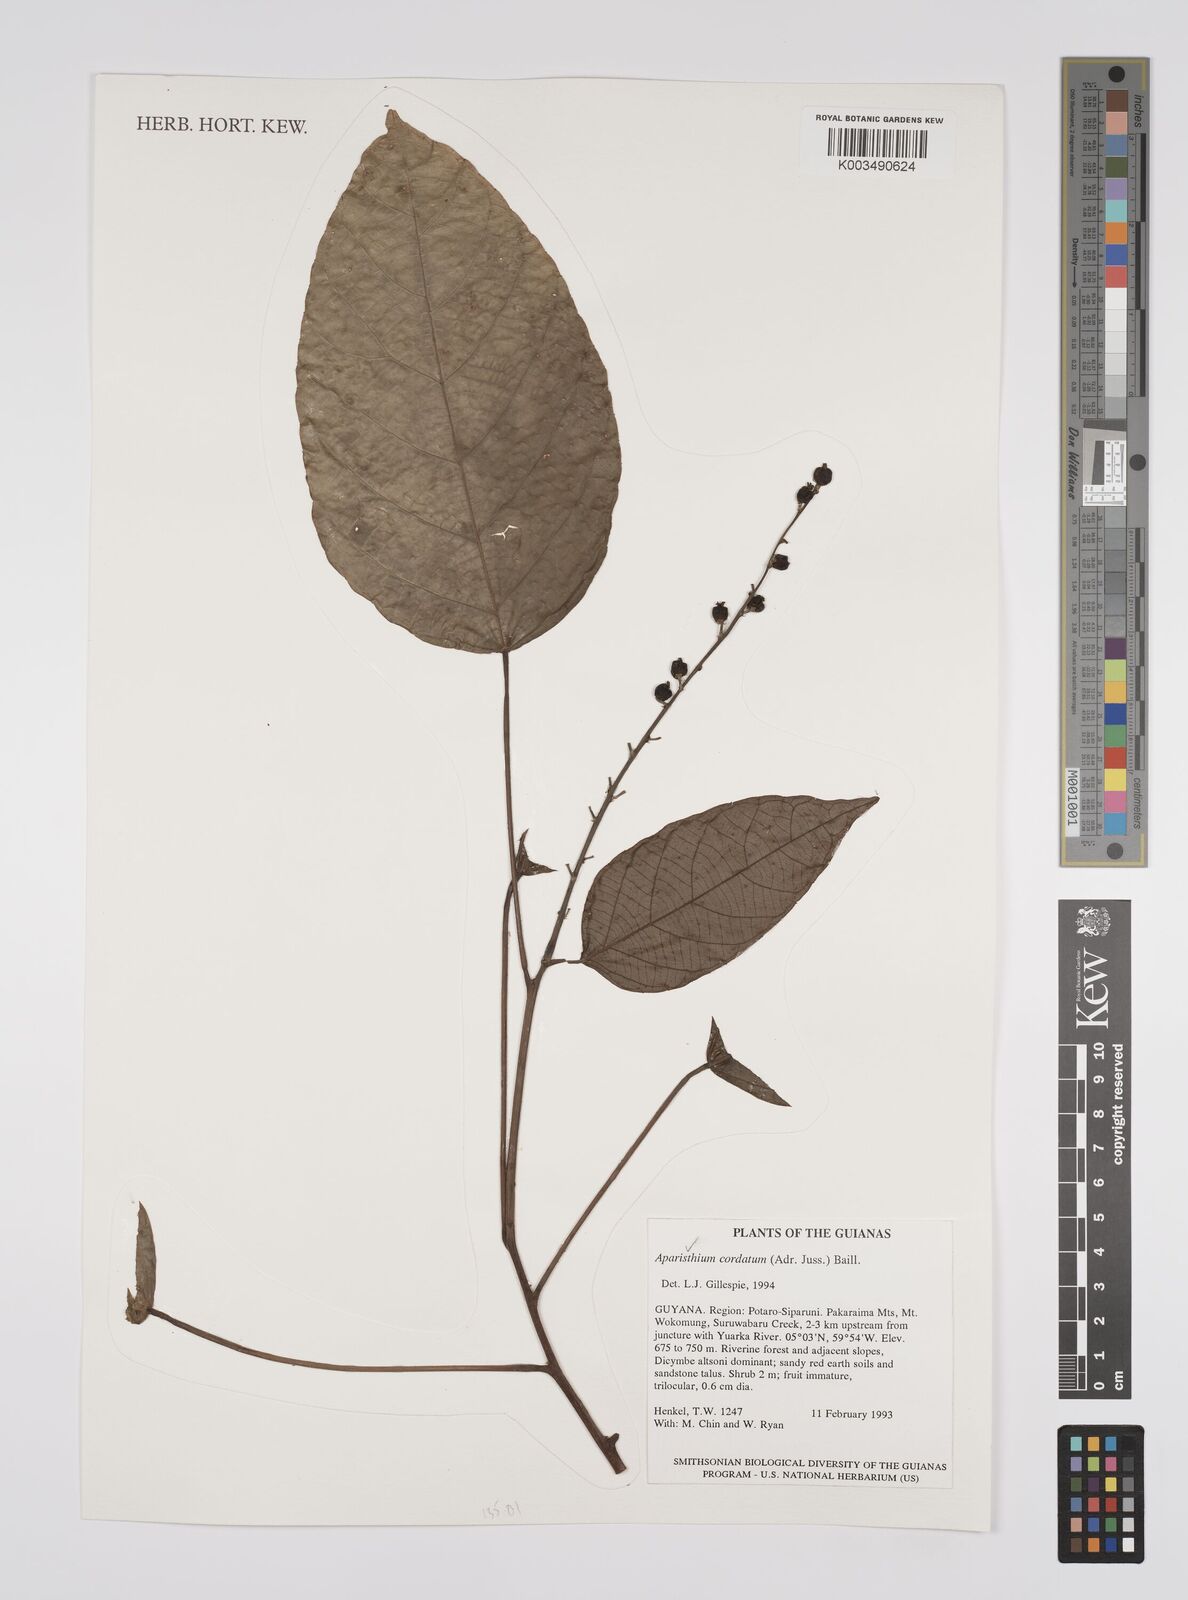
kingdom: Plantae
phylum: Tracheophyta
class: Magnoliopsida
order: Malpighiales
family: Euphorbiaceae
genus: Aparisthmium
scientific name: Aparisthmium cordatum
